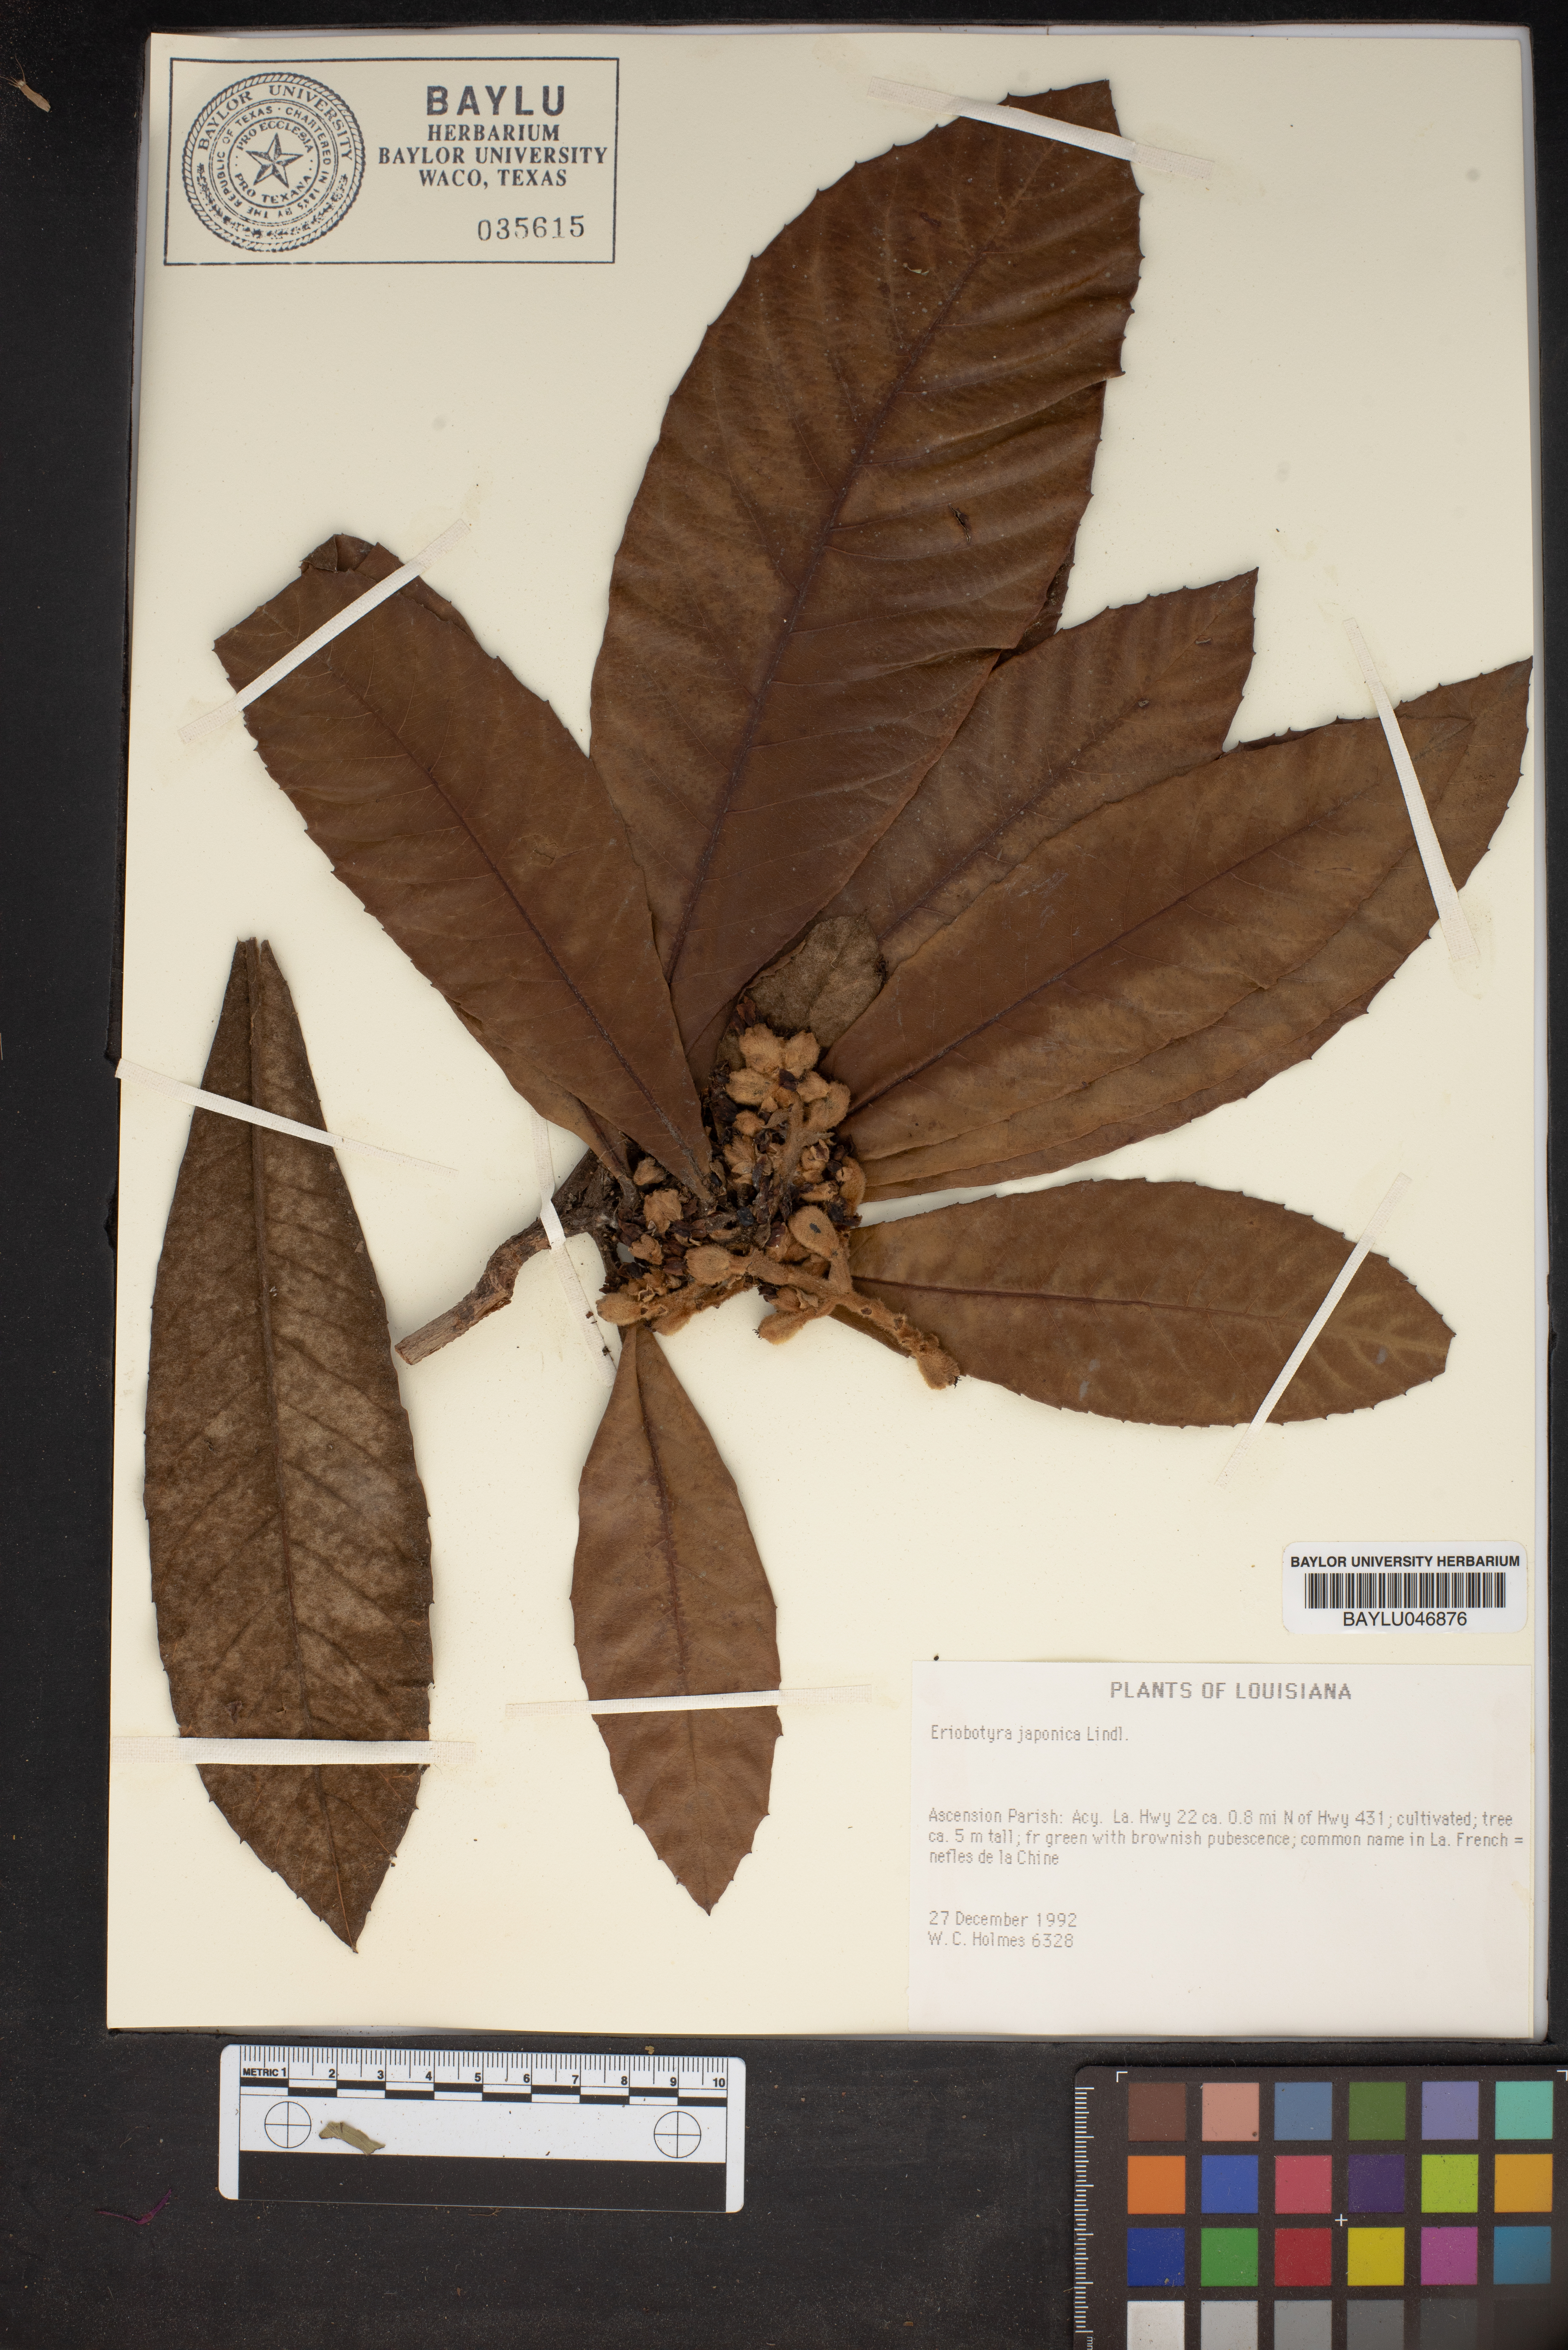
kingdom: Plantae
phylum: Tracheophyta
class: Magnoliopsida
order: Rosales
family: Rosaceae
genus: Rhaphiolepis
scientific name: Rhaphiolepis bibas
